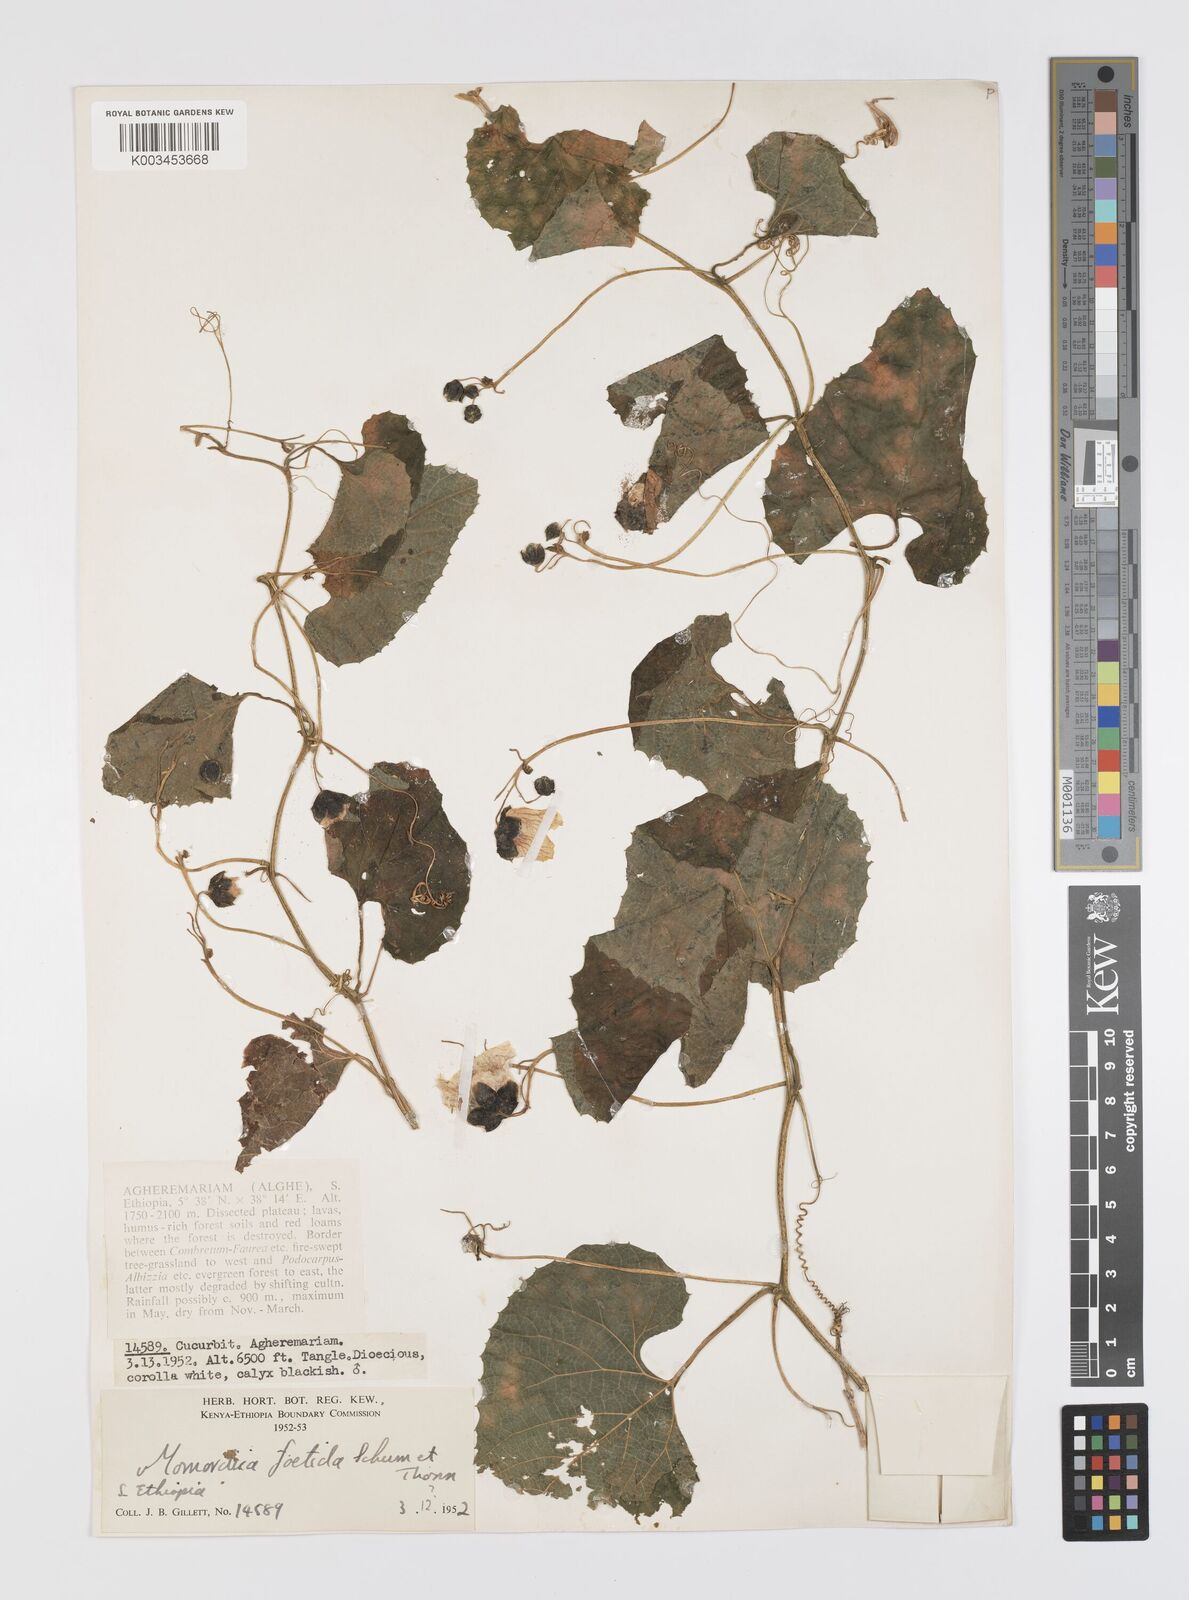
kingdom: Plantae
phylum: Tracheophyta
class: Magnoliopsida
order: Cucurbitales
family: Cucurbitaceae
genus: Momordica
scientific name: Momordica foetida
